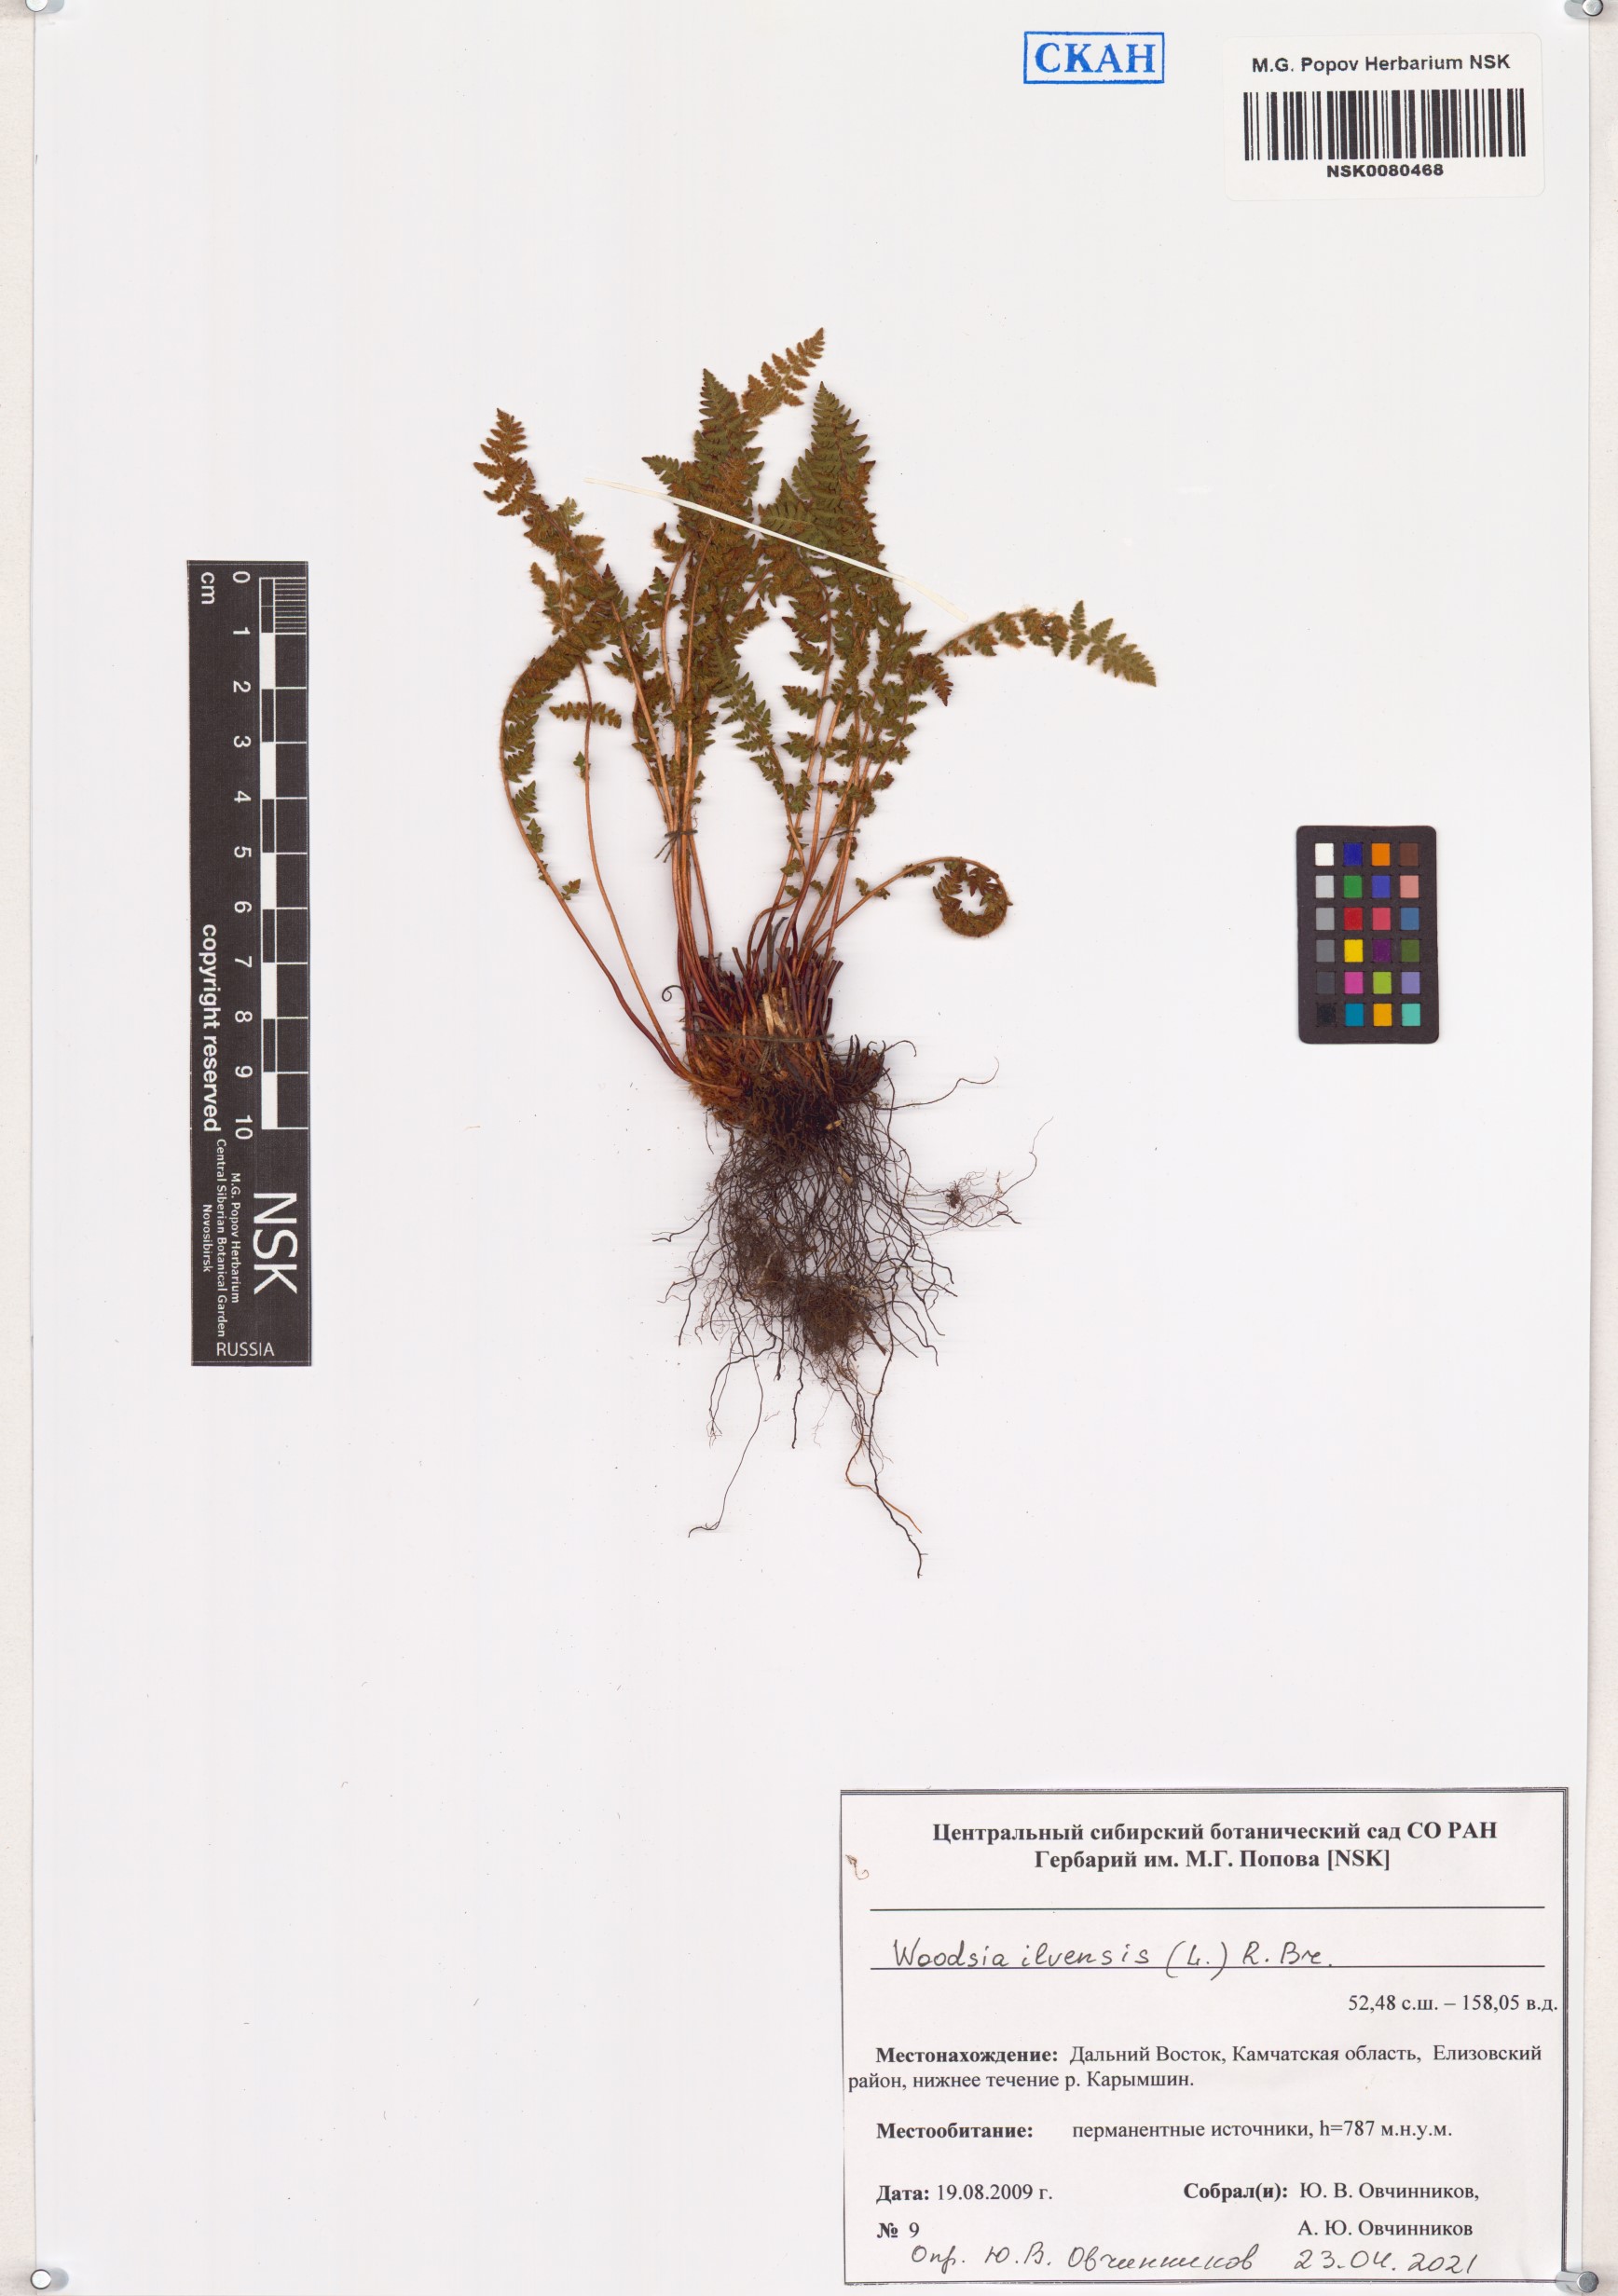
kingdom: Plantae
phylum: Tracheophyta
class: Polypodiopsida
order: Polypodiales
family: Woodsiaceae
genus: Woodsia
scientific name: Woodsia ilvensis
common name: Fragrant woodsia
